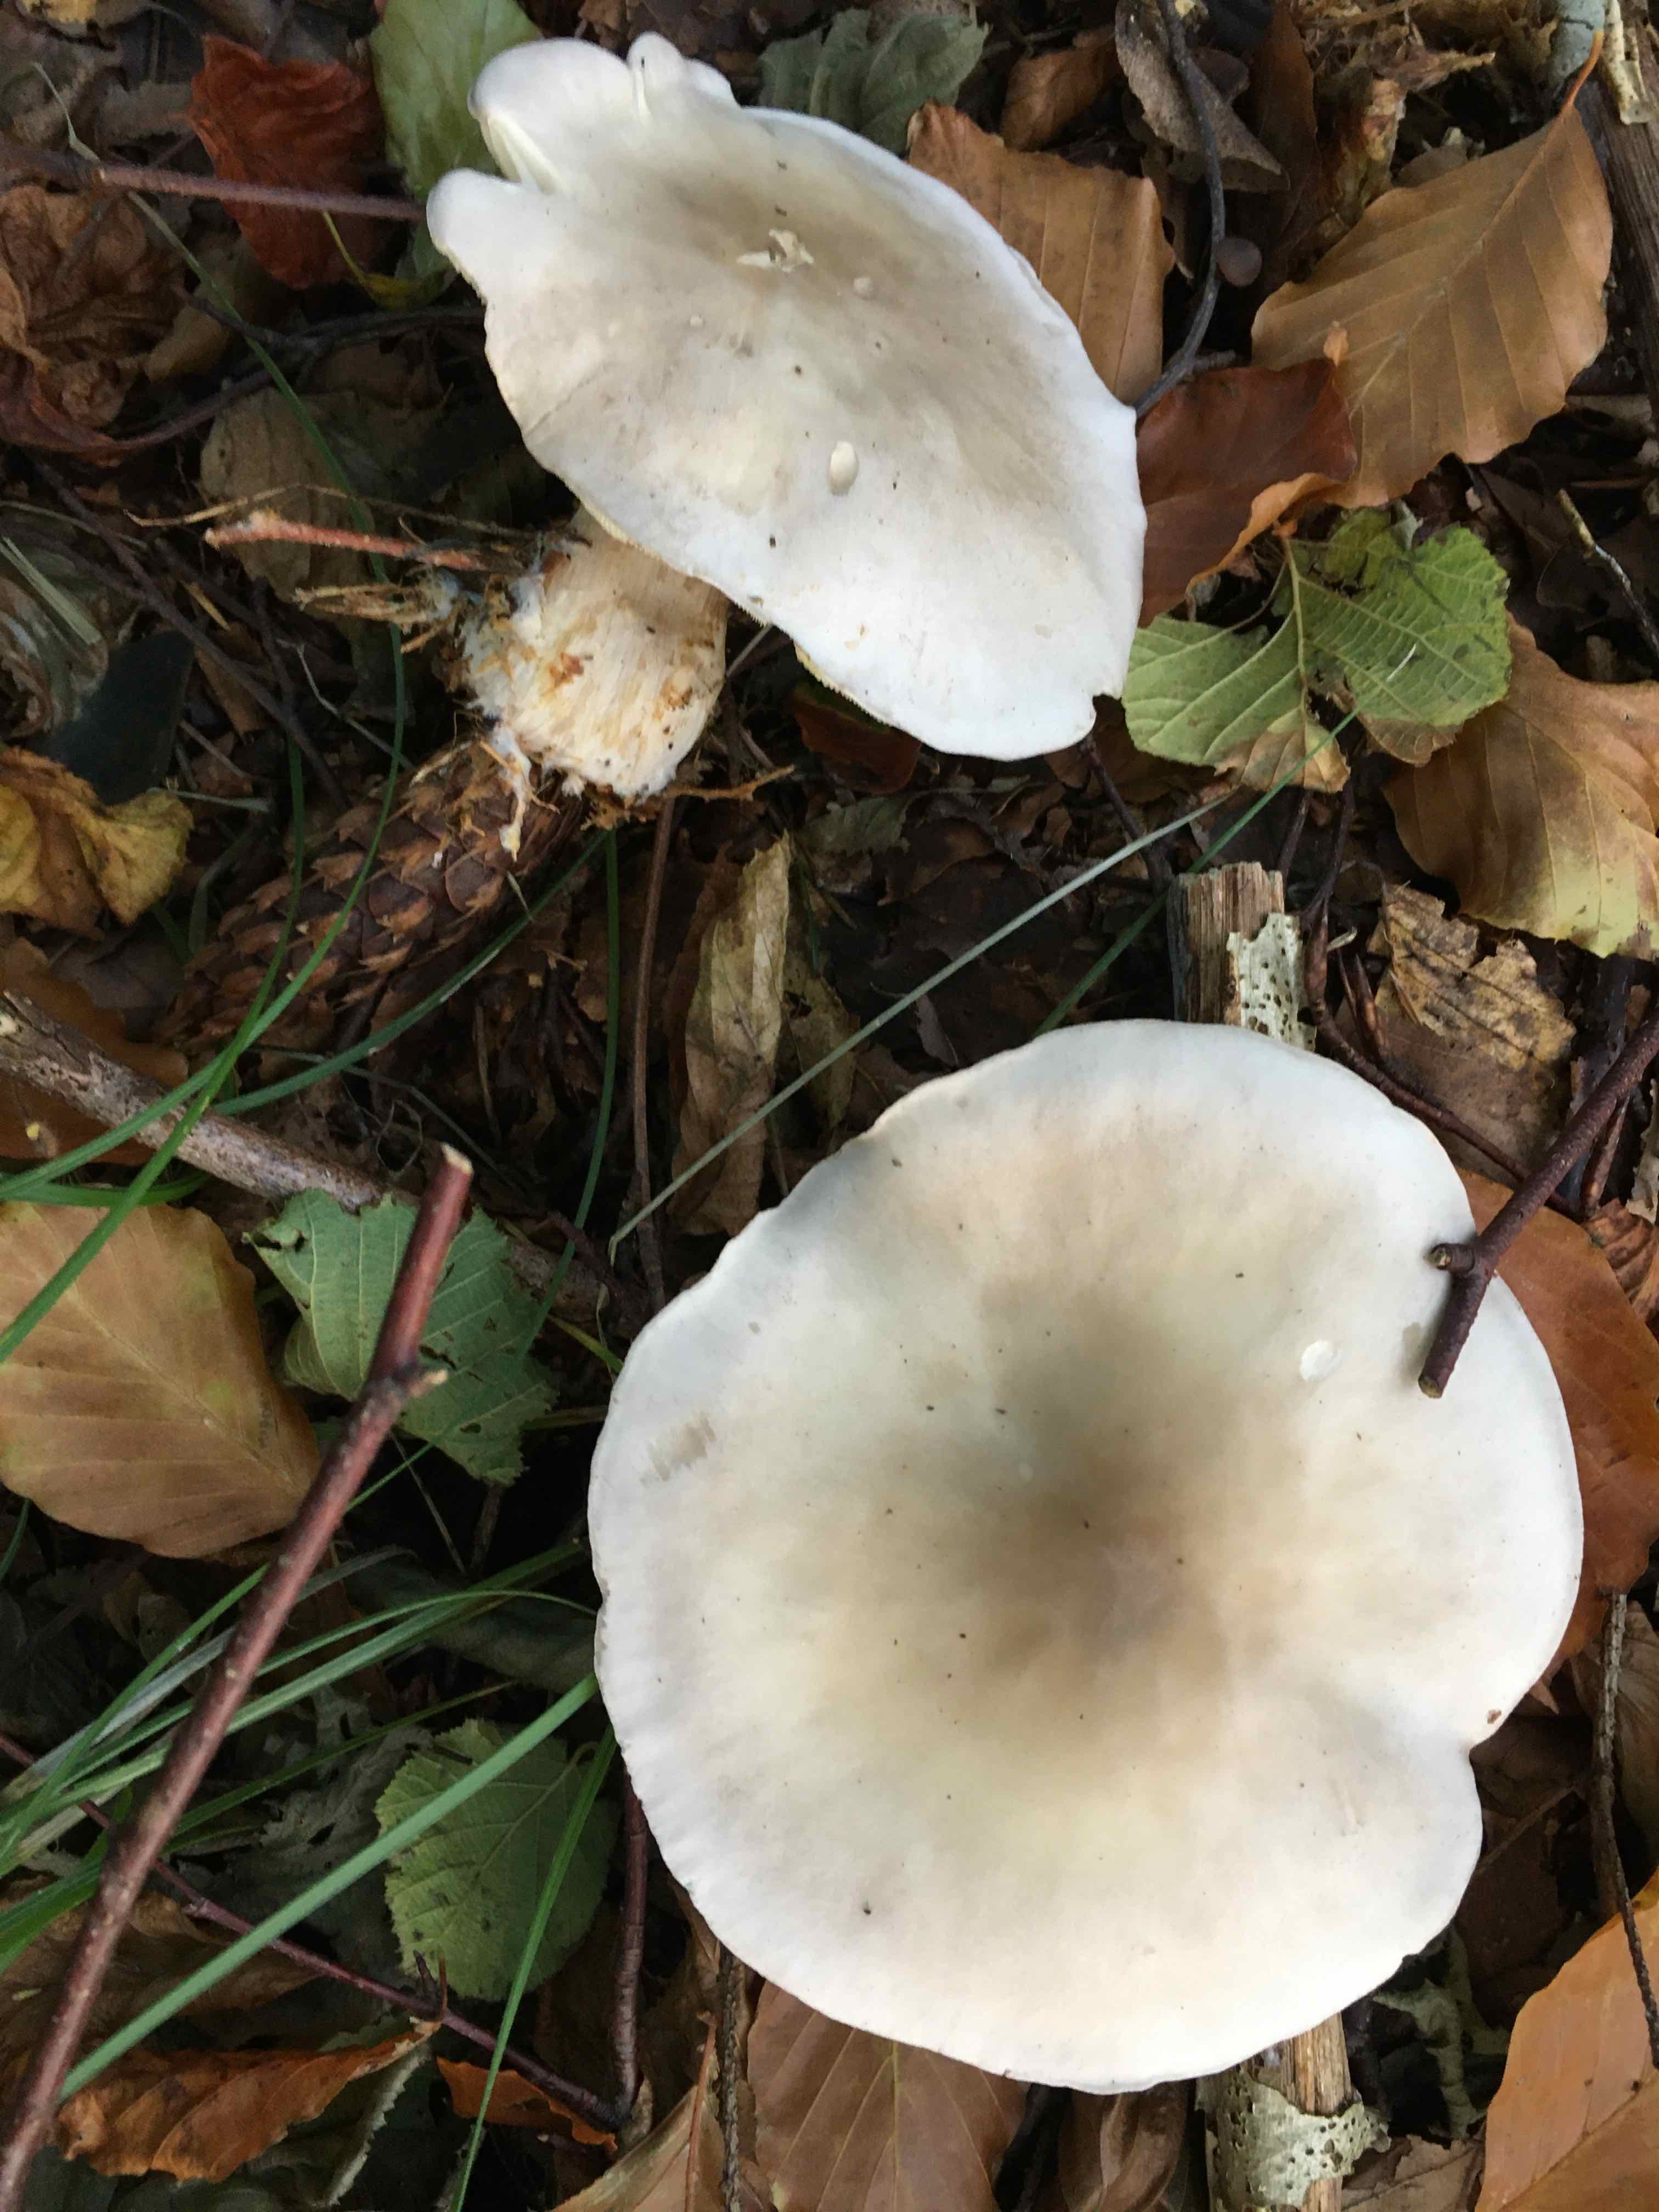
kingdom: Fungi
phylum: Basidiomycota
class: Agaricomycetes
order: Agaricales
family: Tricholomataceae
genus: Clitocybe
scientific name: Clitocybe nebularis
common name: tåge-tragthat
